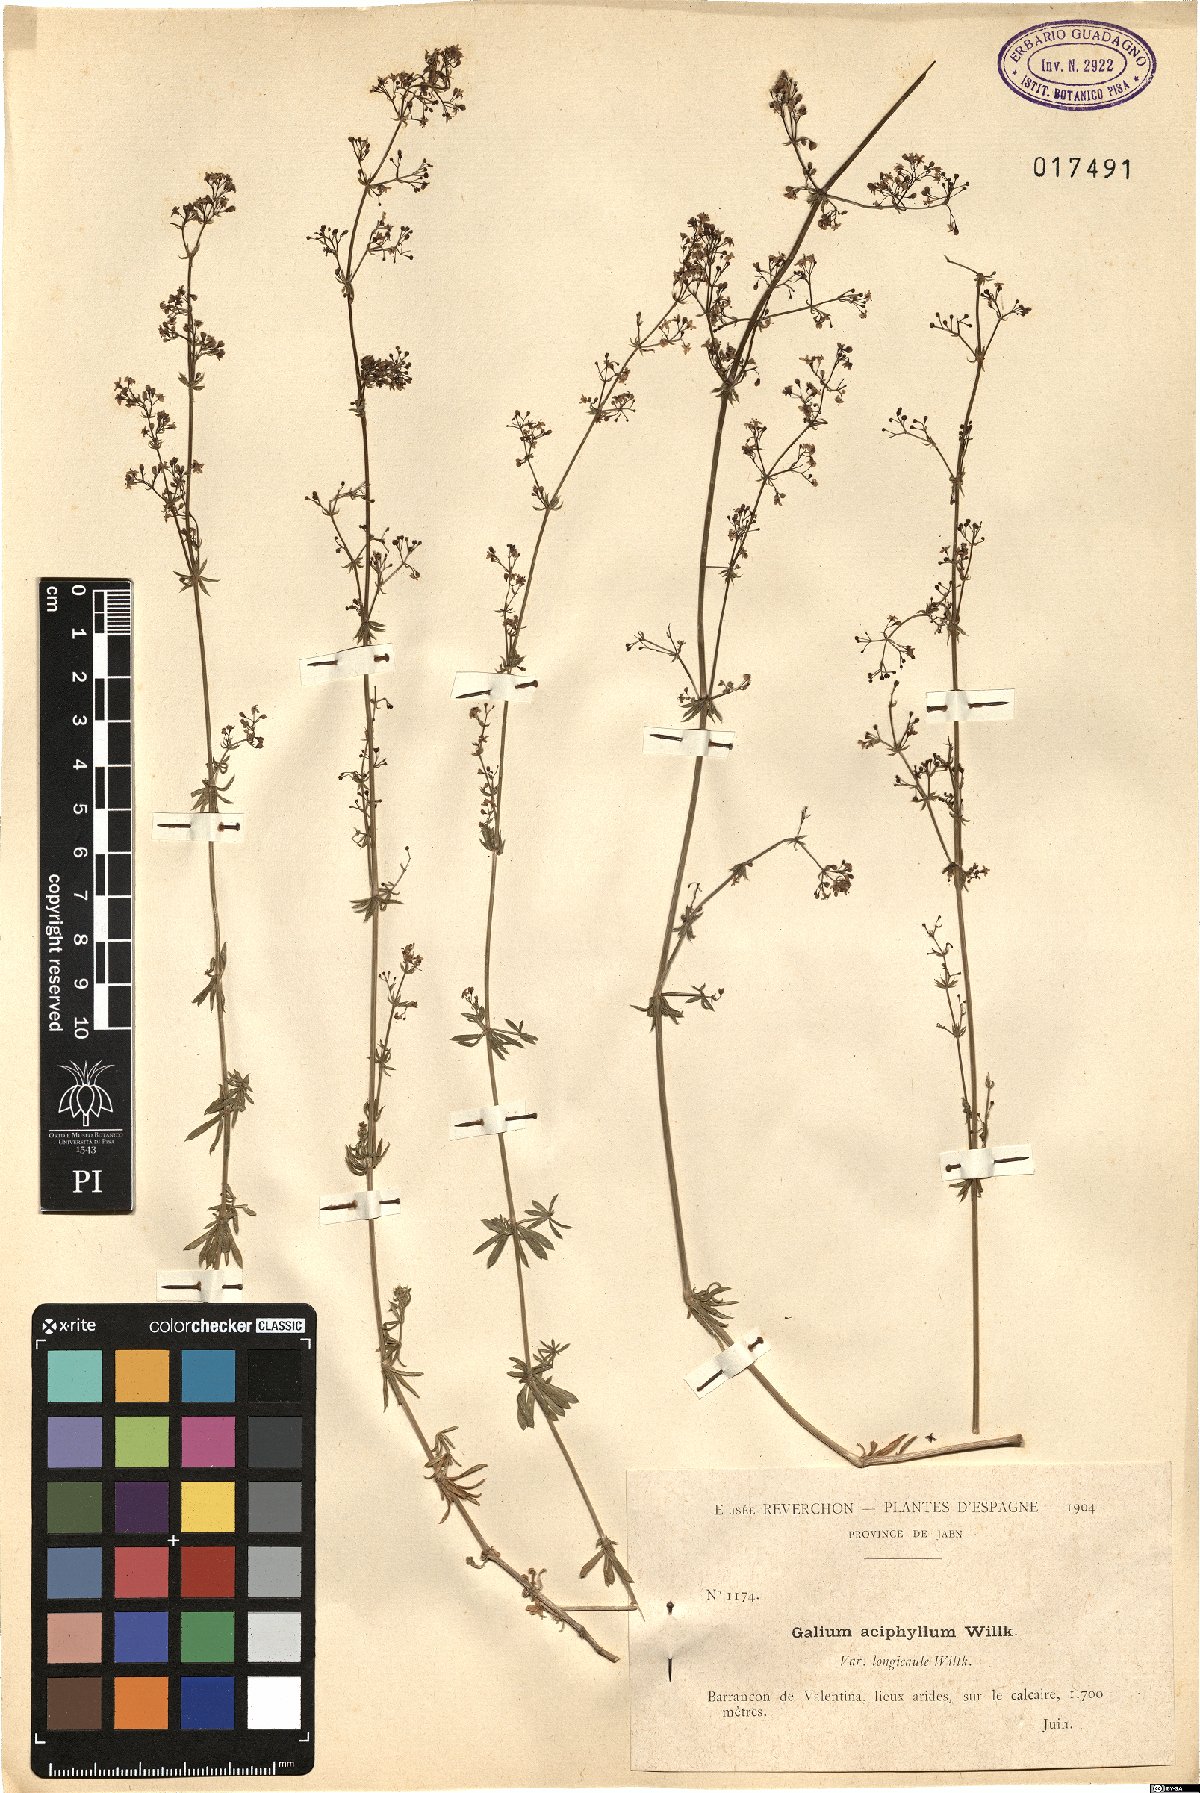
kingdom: Plantae
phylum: Tracheophyta
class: Magnoliopsida
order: Gentianales
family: Rubiaceae
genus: Galium
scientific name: Galium lucidum
